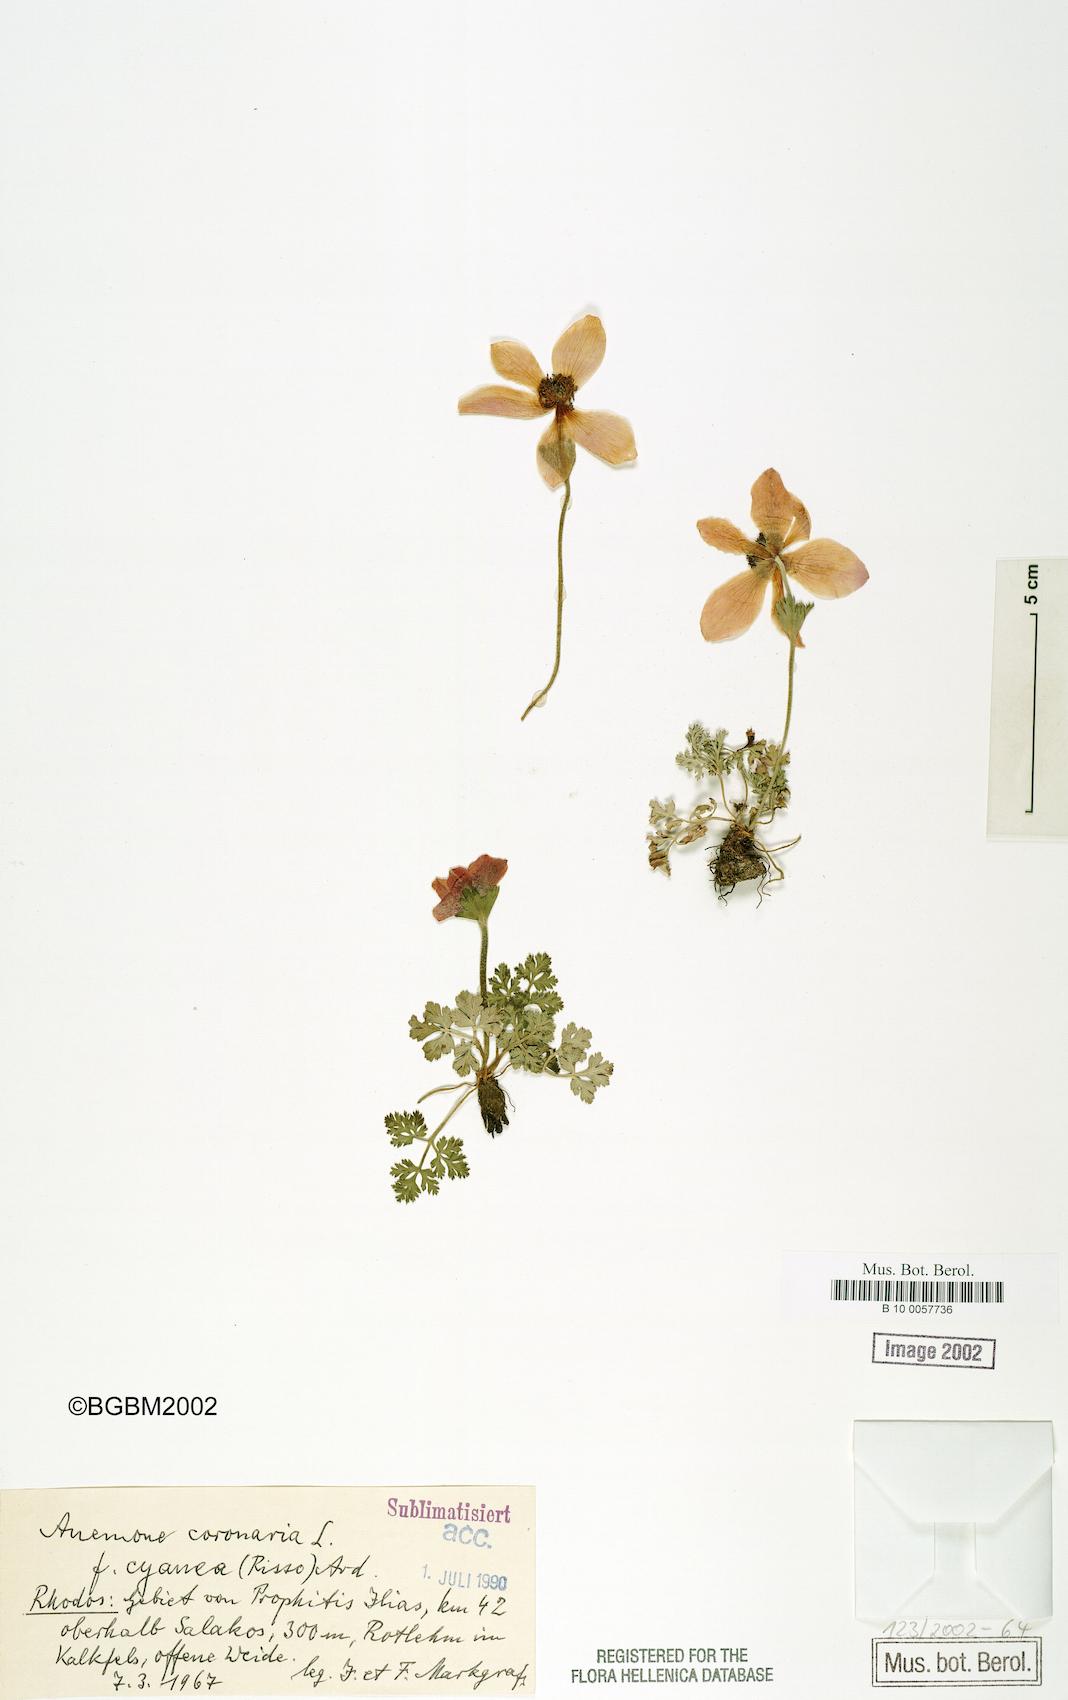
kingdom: Plantae
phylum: Tracheophyta
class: Magnoliopsida
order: Ranunculales
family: Ranunculaceae
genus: Anemone
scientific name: Anemone coronaria
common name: Poppy anemone
